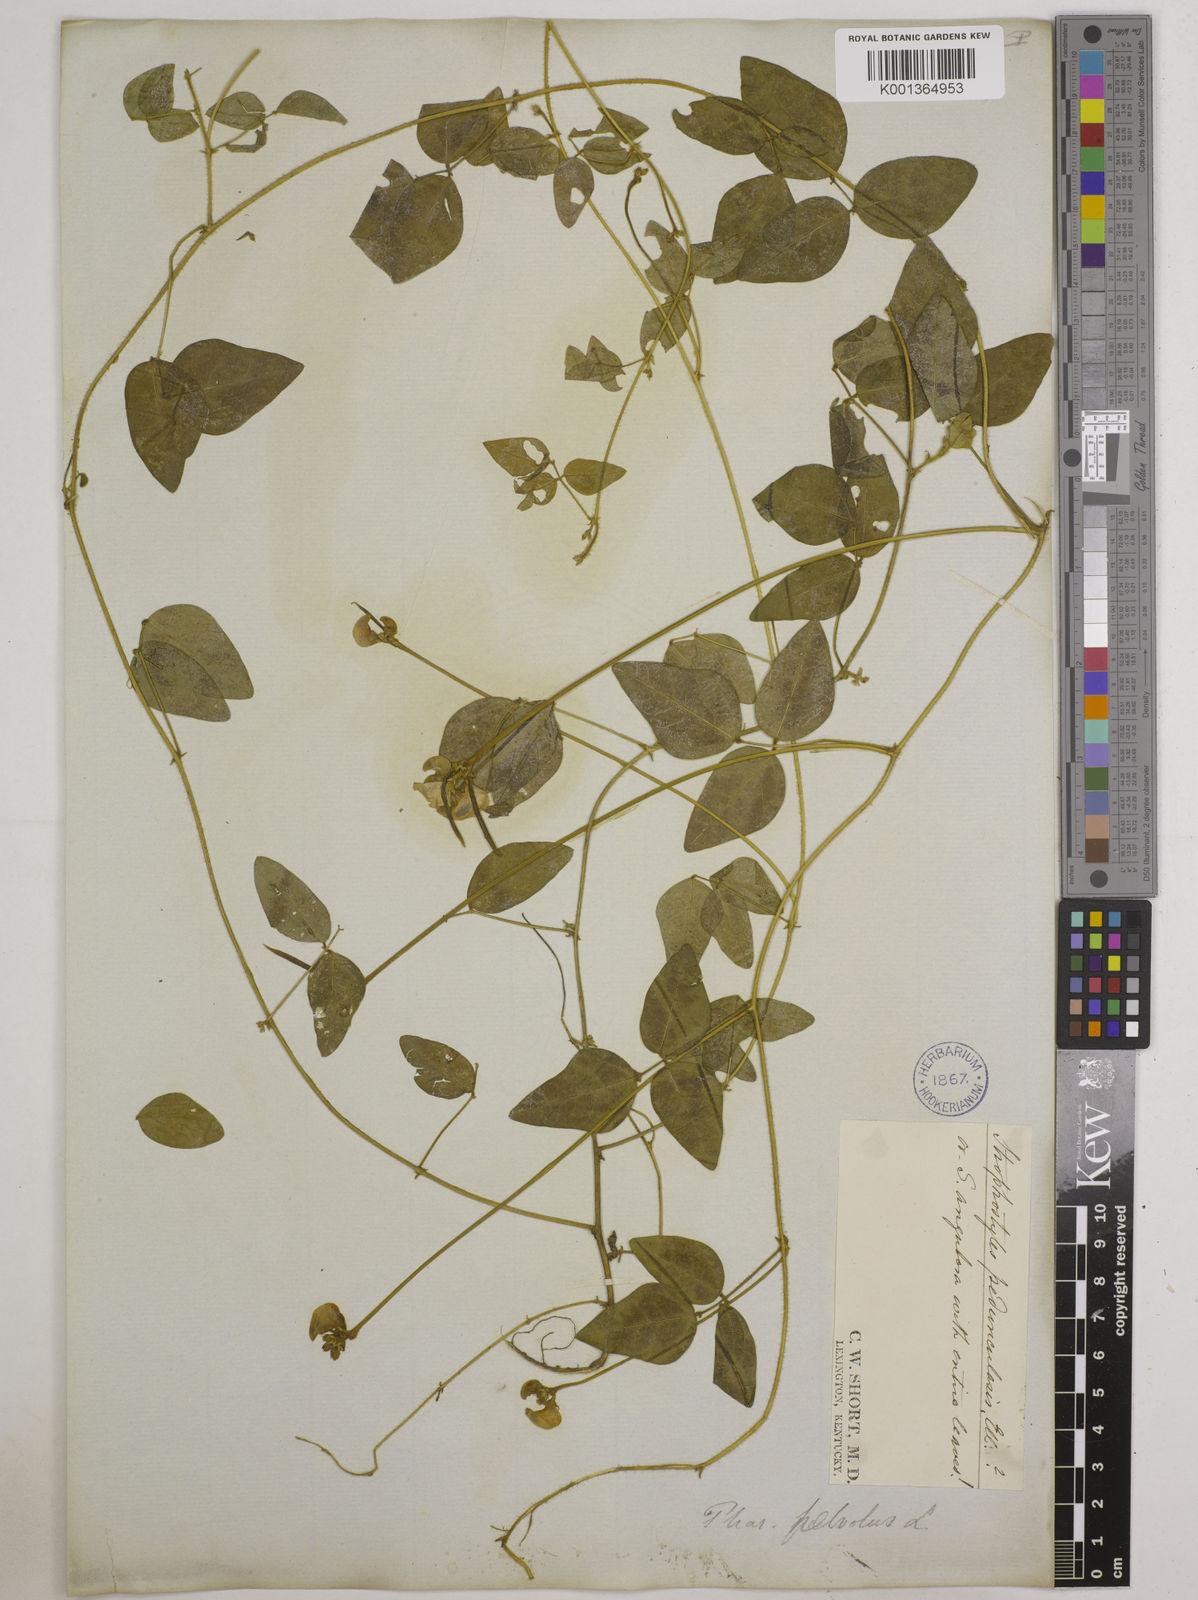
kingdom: Plantae
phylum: Tracheophyta
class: Magnoliopsida
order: Fabales
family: Fabaceae
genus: Strophostyles
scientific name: Strophostyles
